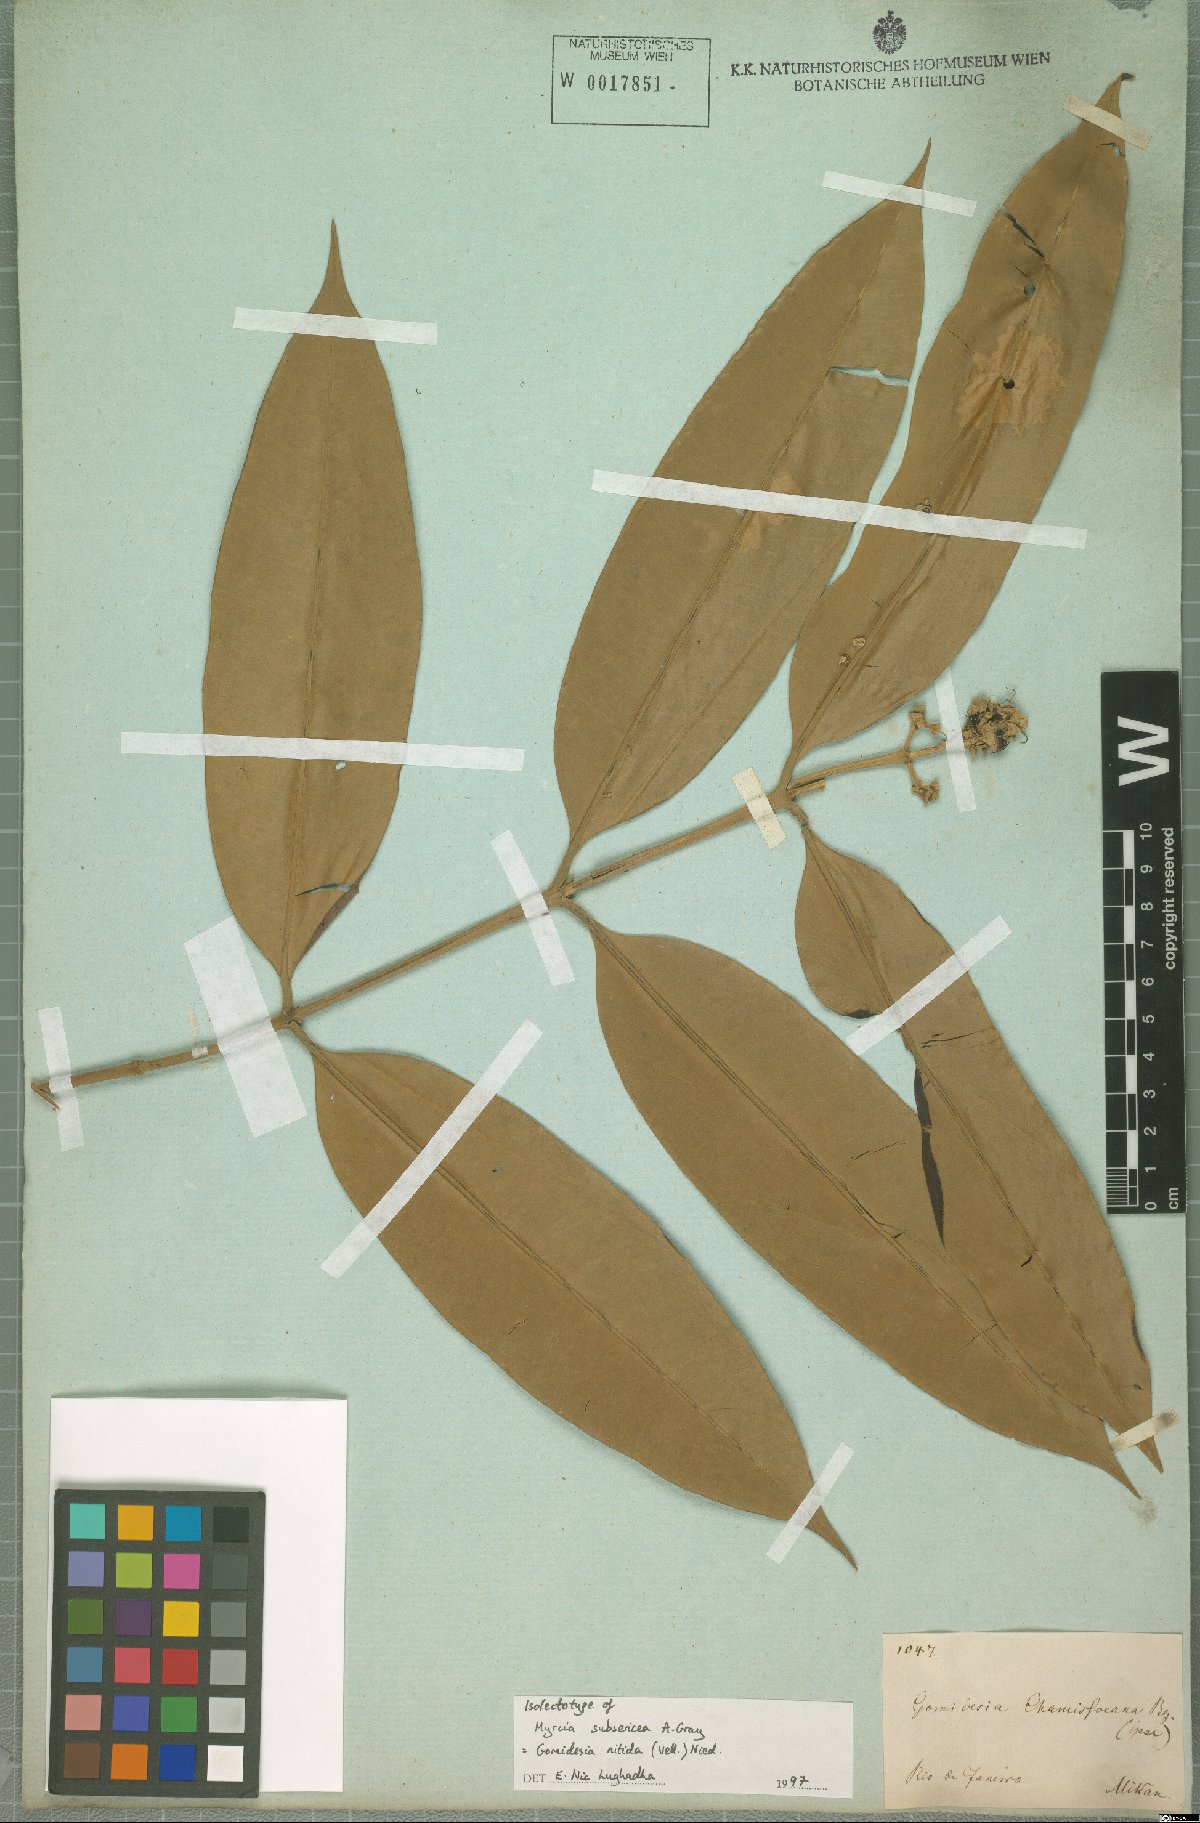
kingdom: Plantae
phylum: Tracheophyta
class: Magnoliopsida
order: Myrtales
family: Myrtaceae
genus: Myrcia
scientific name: Myrcia subsericea
